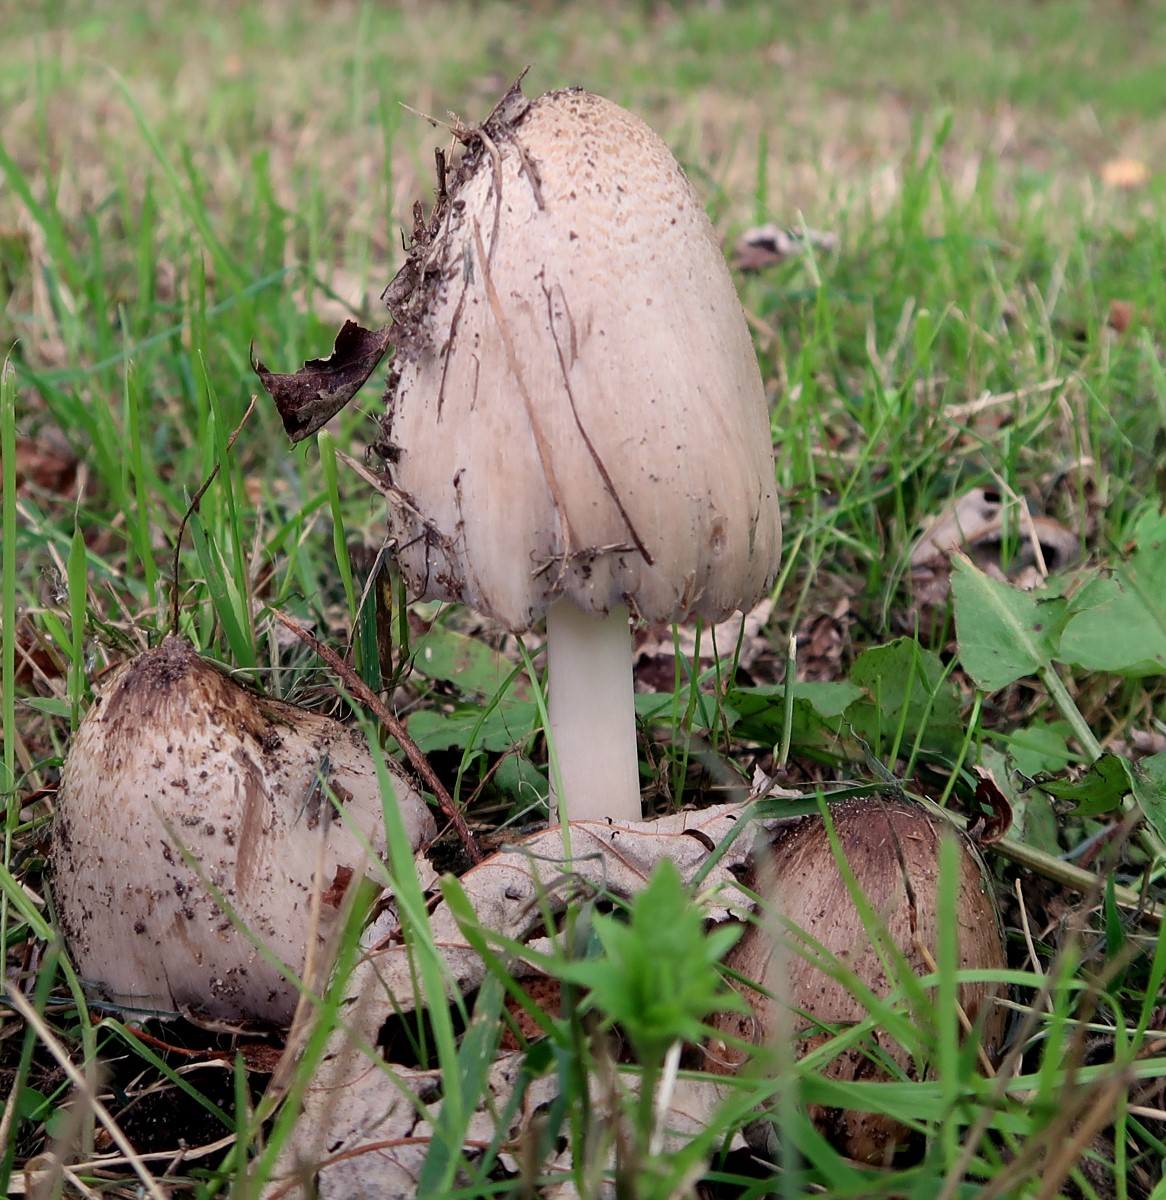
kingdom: Fungi
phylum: Basidiomycota
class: Agaricomycetes
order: Agaricales
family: Psathyrellaceae
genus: Coprinopsis
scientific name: Coprinopsis atramentaria
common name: almindelig blækhat
